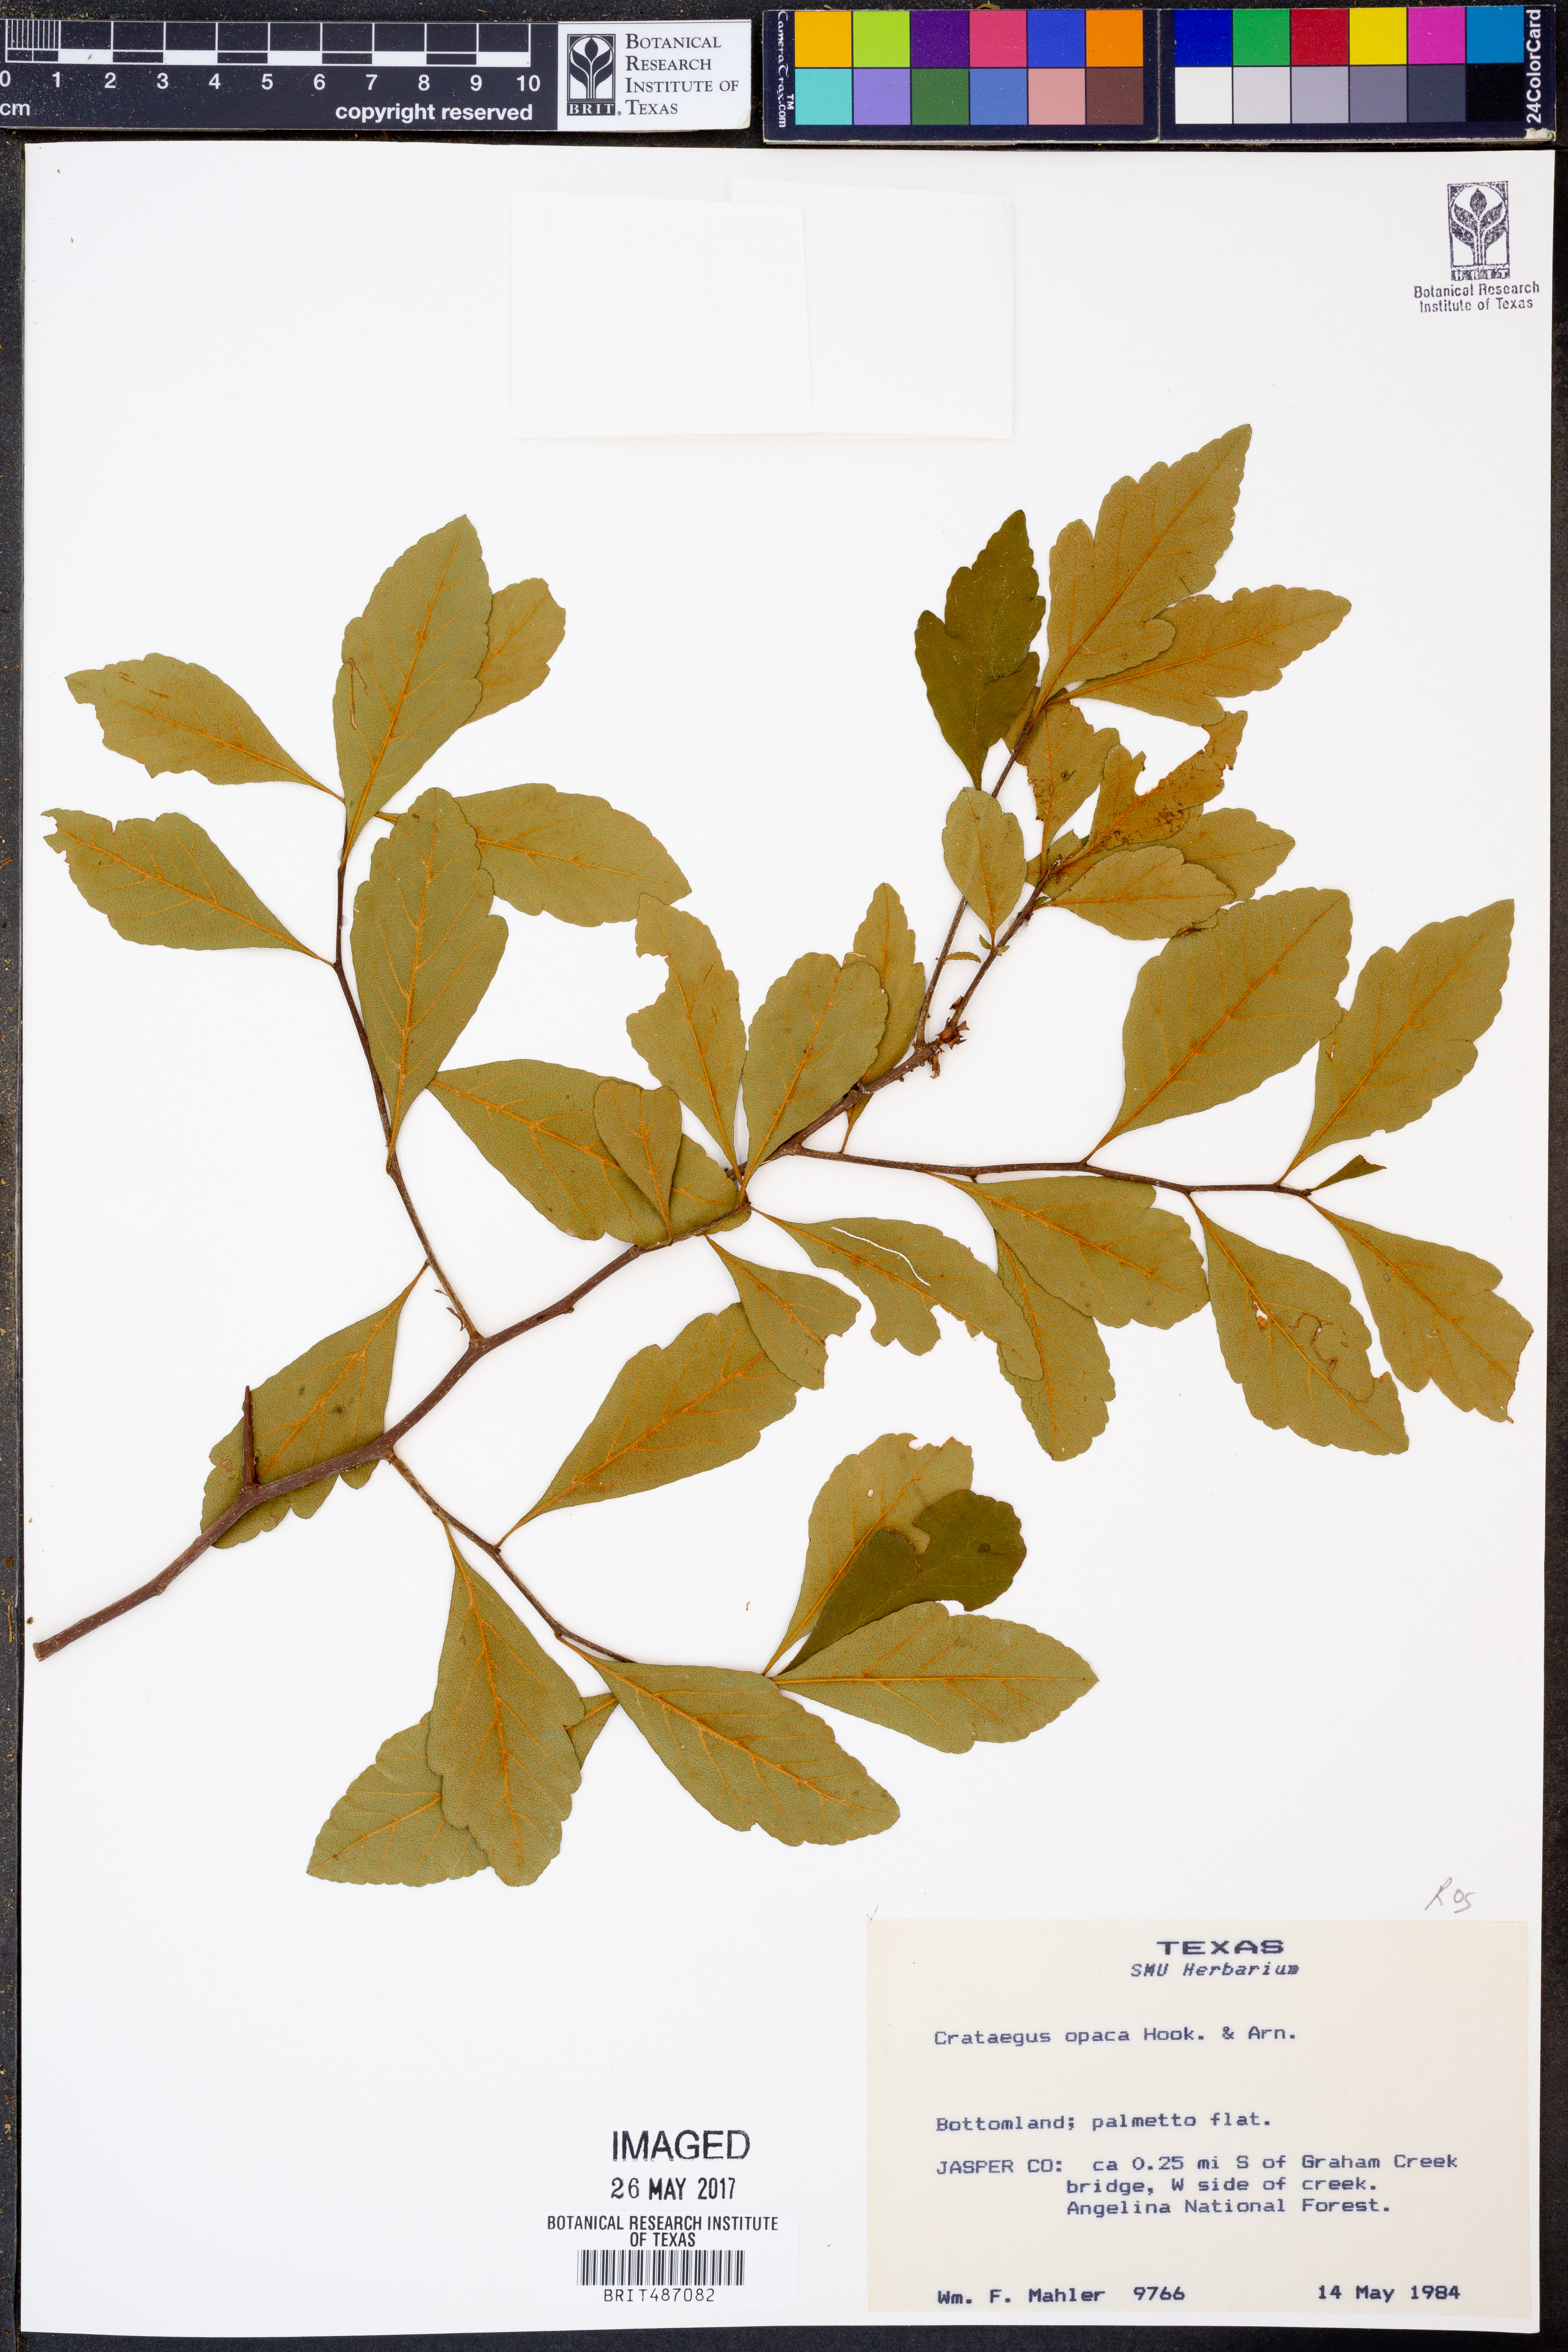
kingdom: Plantae
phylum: Tracheophyta
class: Magnoliopsida
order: Rosales
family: Rosaceae
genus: Crataegus
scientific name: Crataegus opaca
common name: Apple haw
